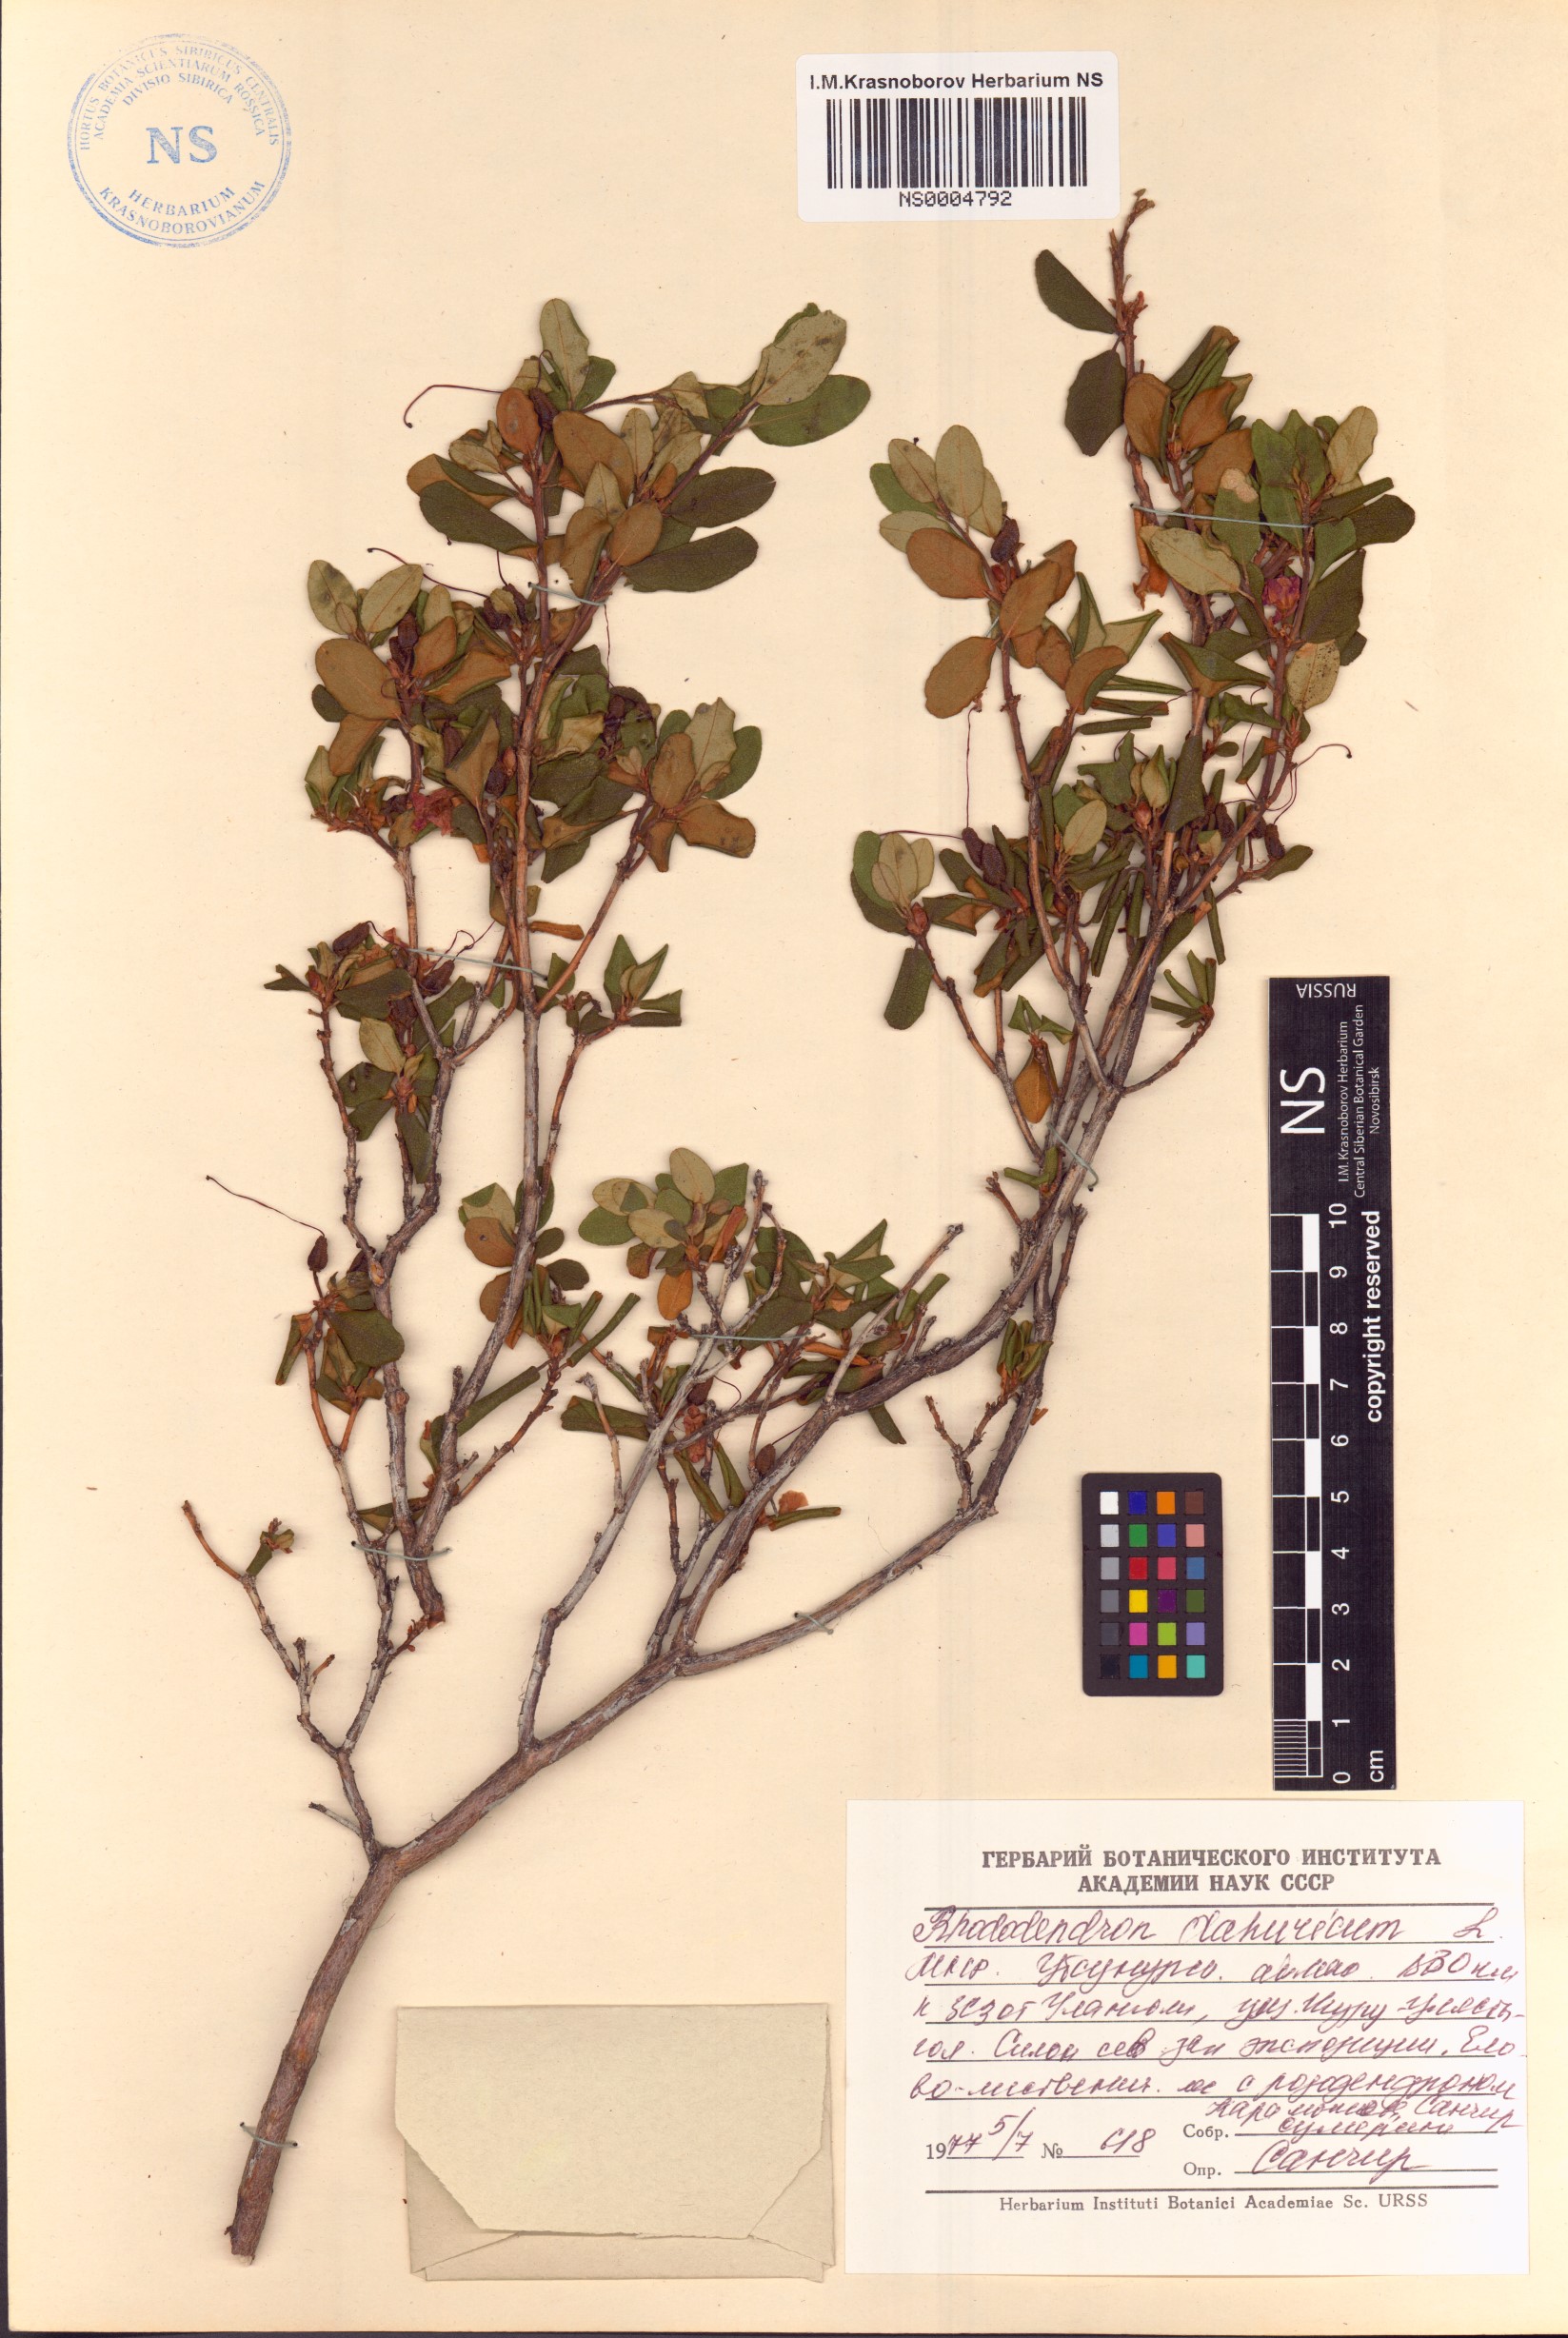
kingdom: Plantae
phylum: Tracheophyta
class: Magnoliopsida
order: Ericales
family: Ericaceae
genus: Rhododendron
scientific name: Rhododendron dauricum
